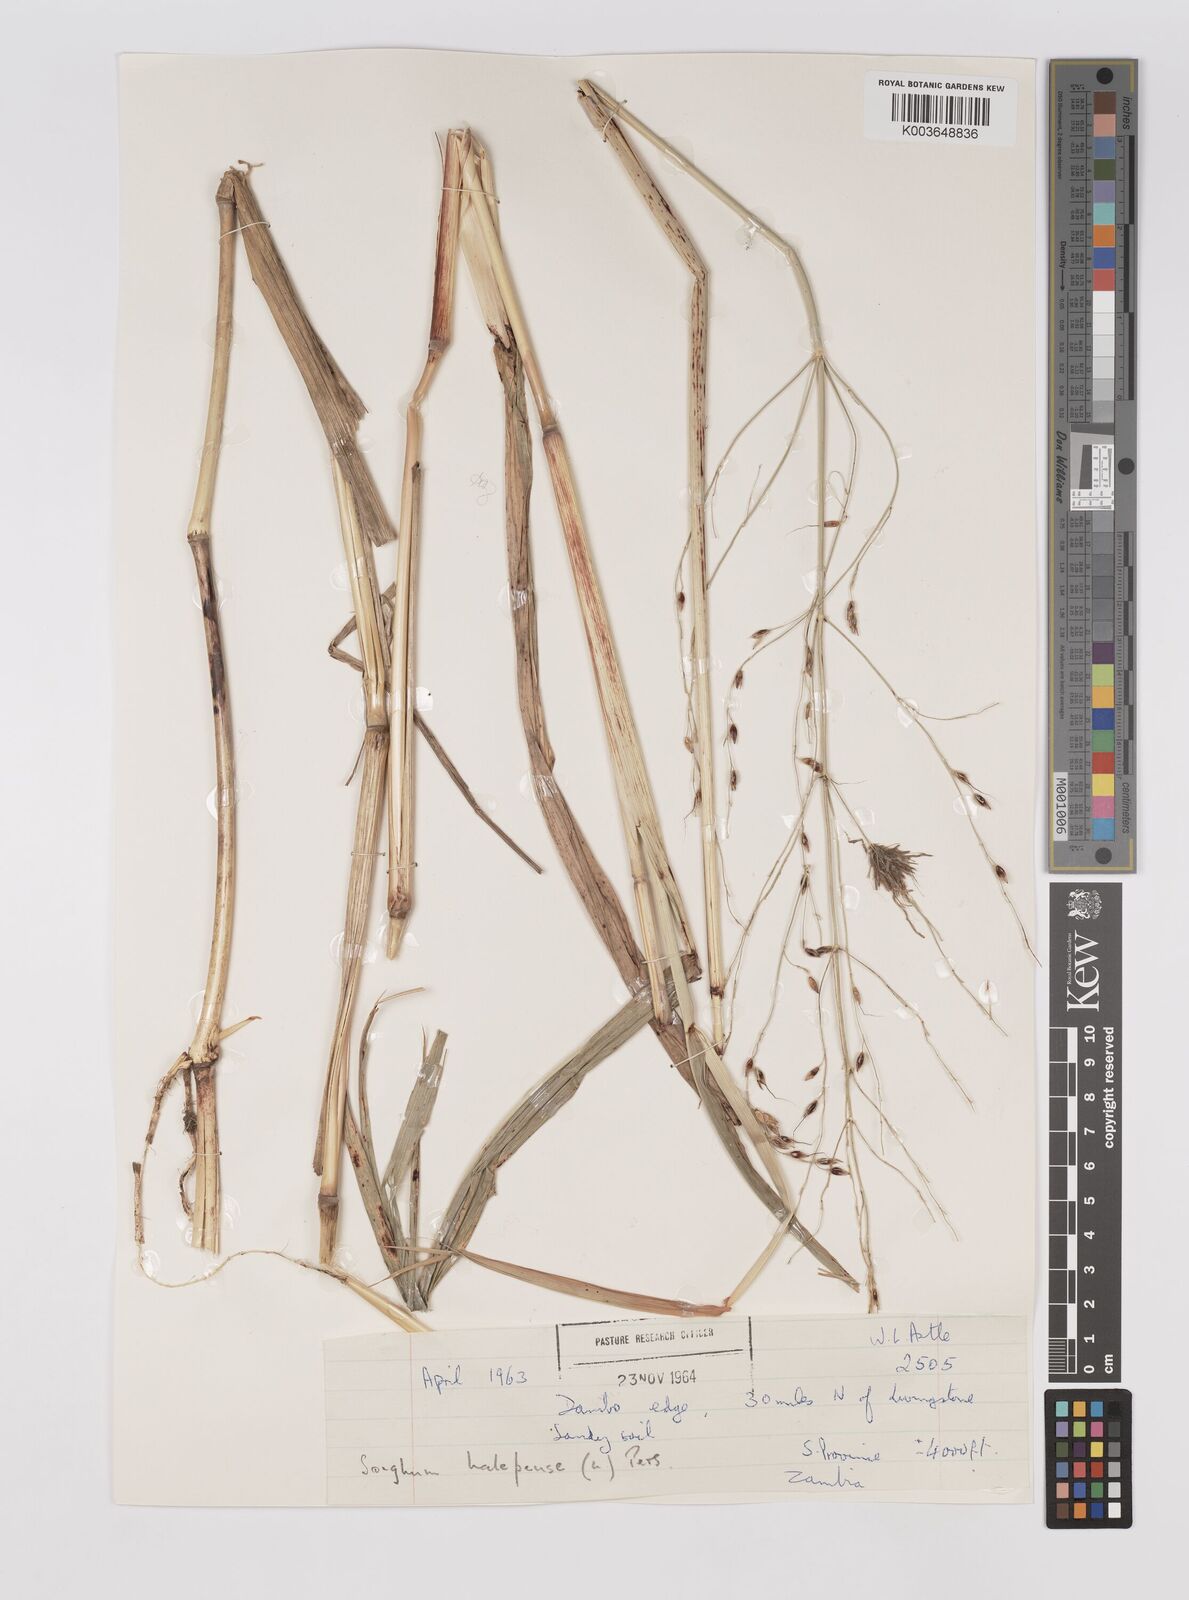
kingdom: Plantae
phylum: Tracheophyta
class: Liliopsida
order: Poales
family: Poaceae
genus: Sorghum
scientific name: Sorghum arundinaceum
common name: Sorghum
